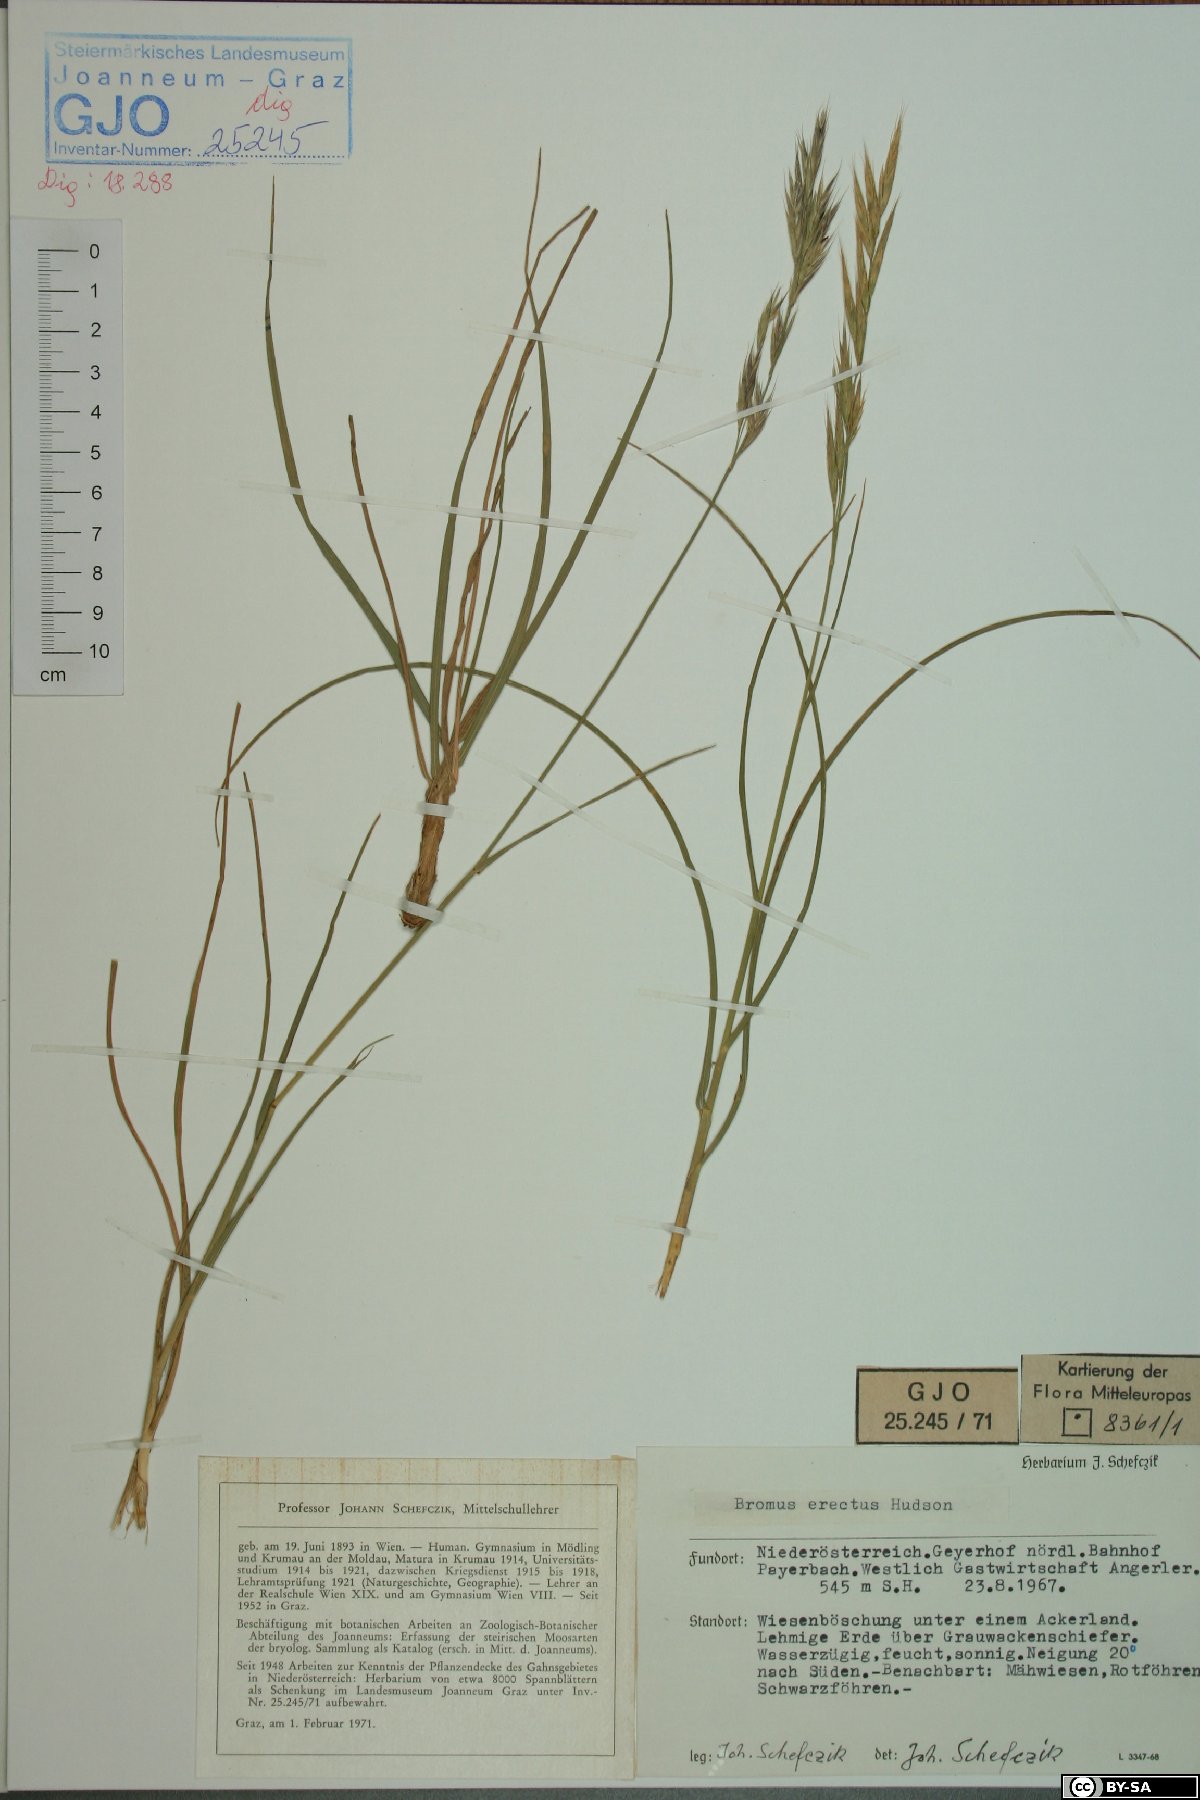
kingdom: Plantae
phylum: Tracheophyta
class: Liliopsida
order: Poales
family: Poaceae
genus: Bromus
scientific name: Bromus erectus
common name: Erect brome
